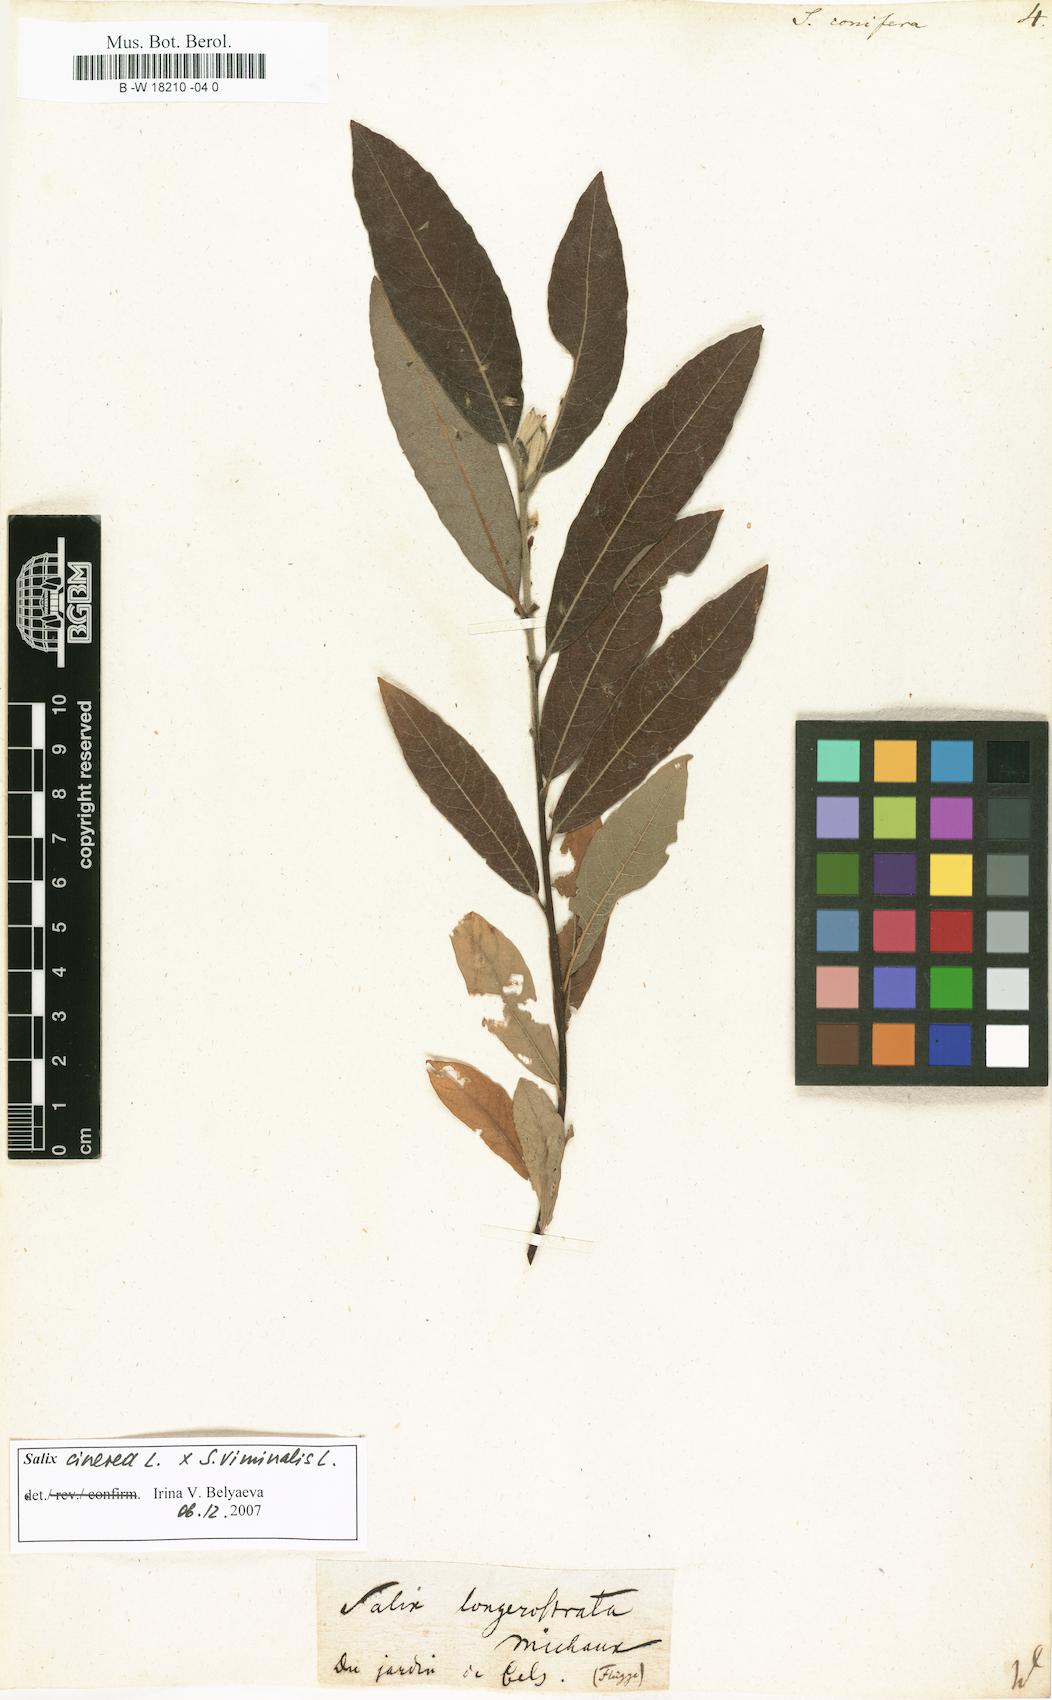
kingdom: Plantae
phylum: Tracheophyta
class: Magnoliopsida
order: Malpighiales
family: Salicaceae
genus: Salix
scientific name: Salix conifera
